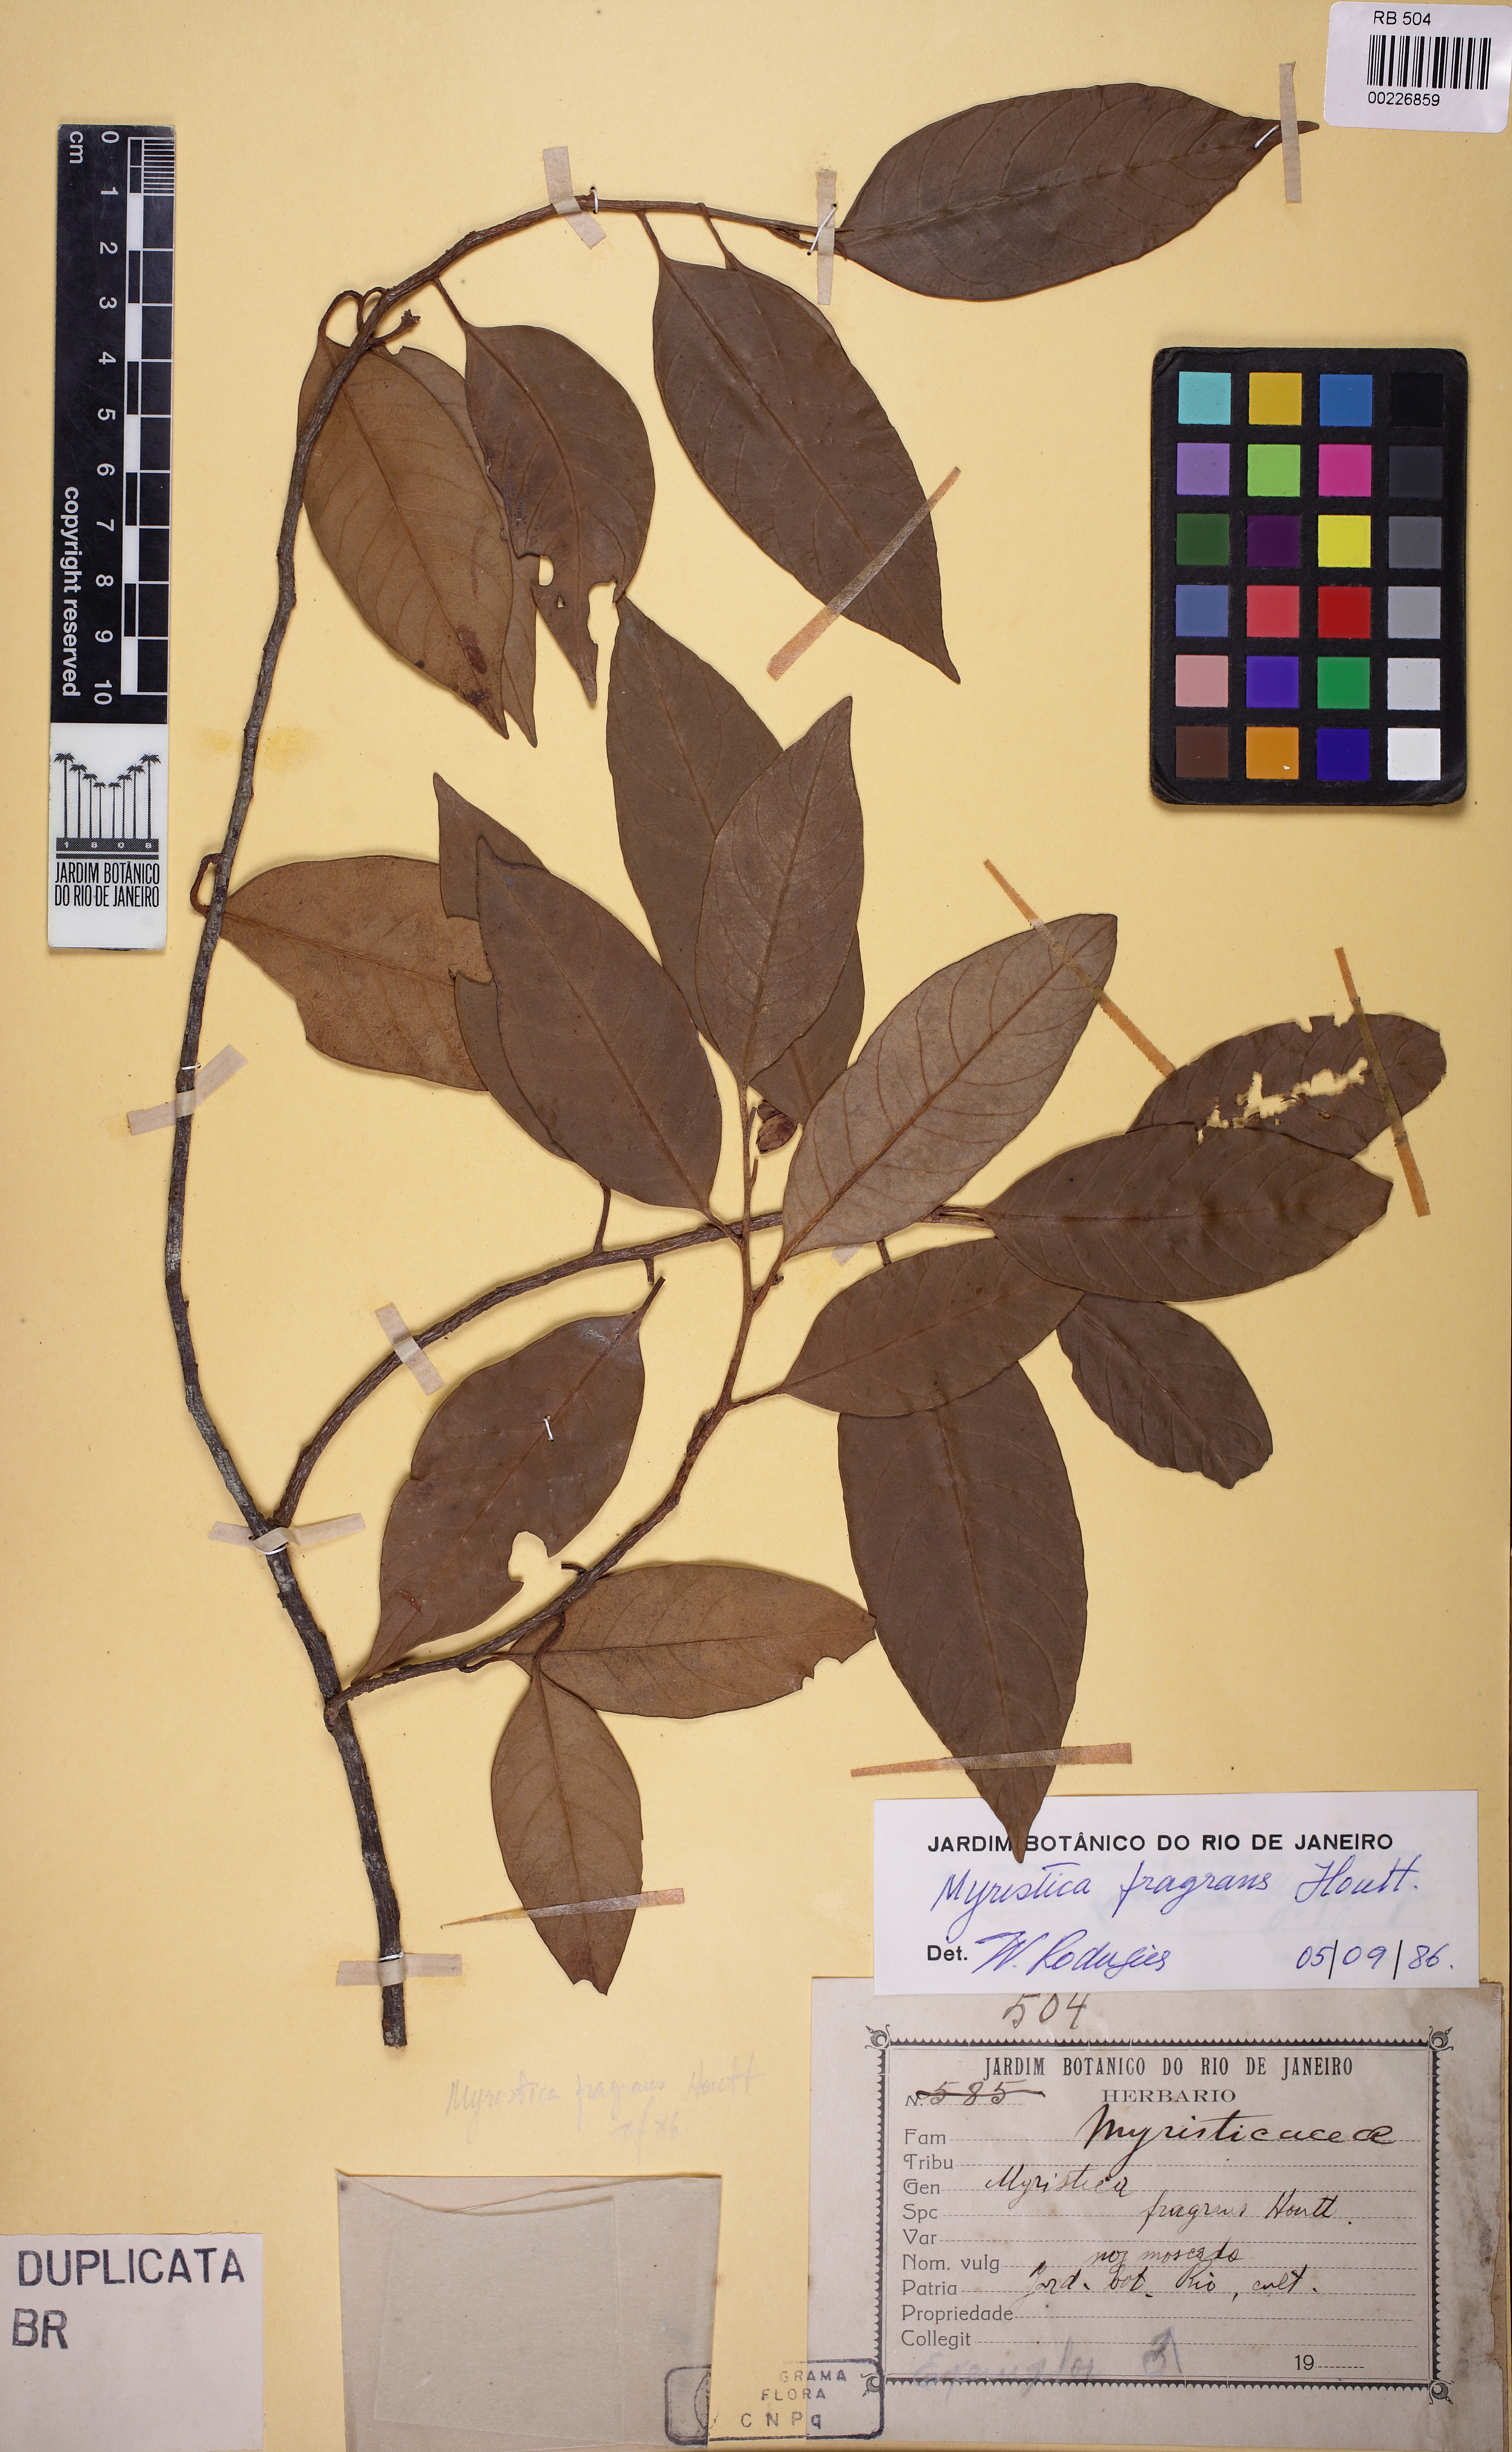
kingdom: Plantae
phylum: Tracheophyta
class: Magnoliopsida
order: Magnoliales
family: Myristicaceae
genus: Myristica
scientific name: Myristica fragrans
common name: Nutmeg
